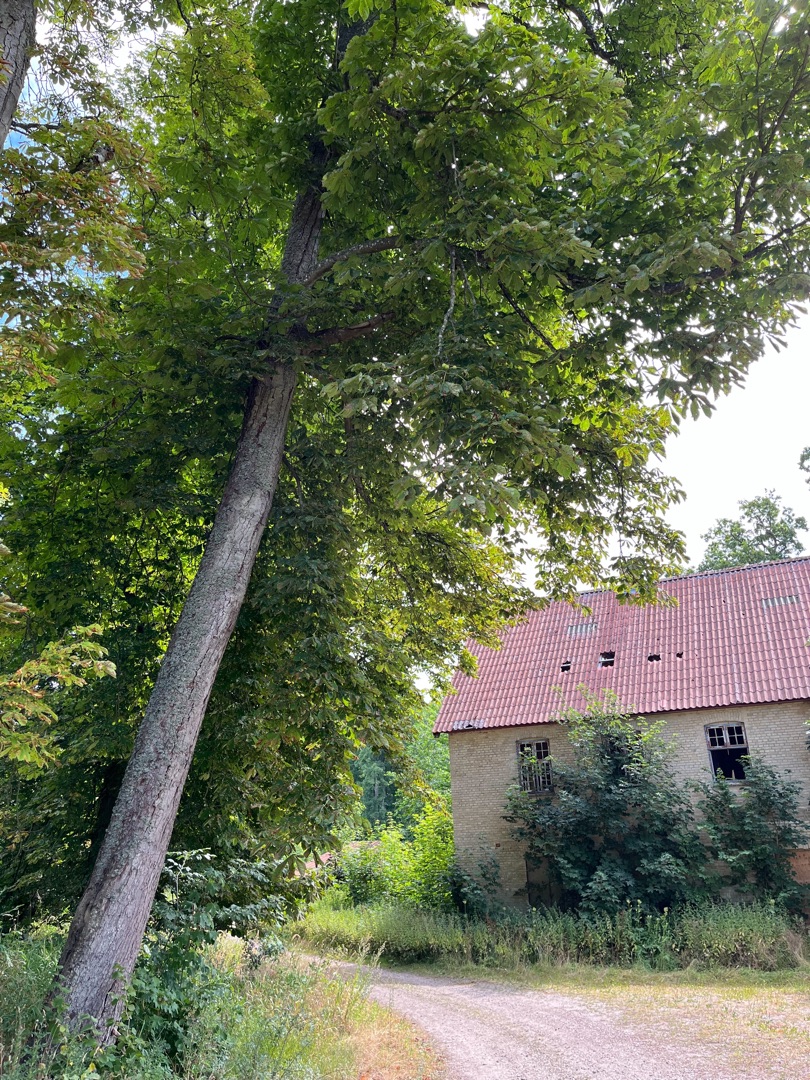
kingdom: Plantae
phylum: Tracheophyta
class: Magnoliopsida
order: Sapindales
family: Sapindaceae
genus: Aesculus
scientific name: Aesculus hippocastanum
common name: Hestekastanie
